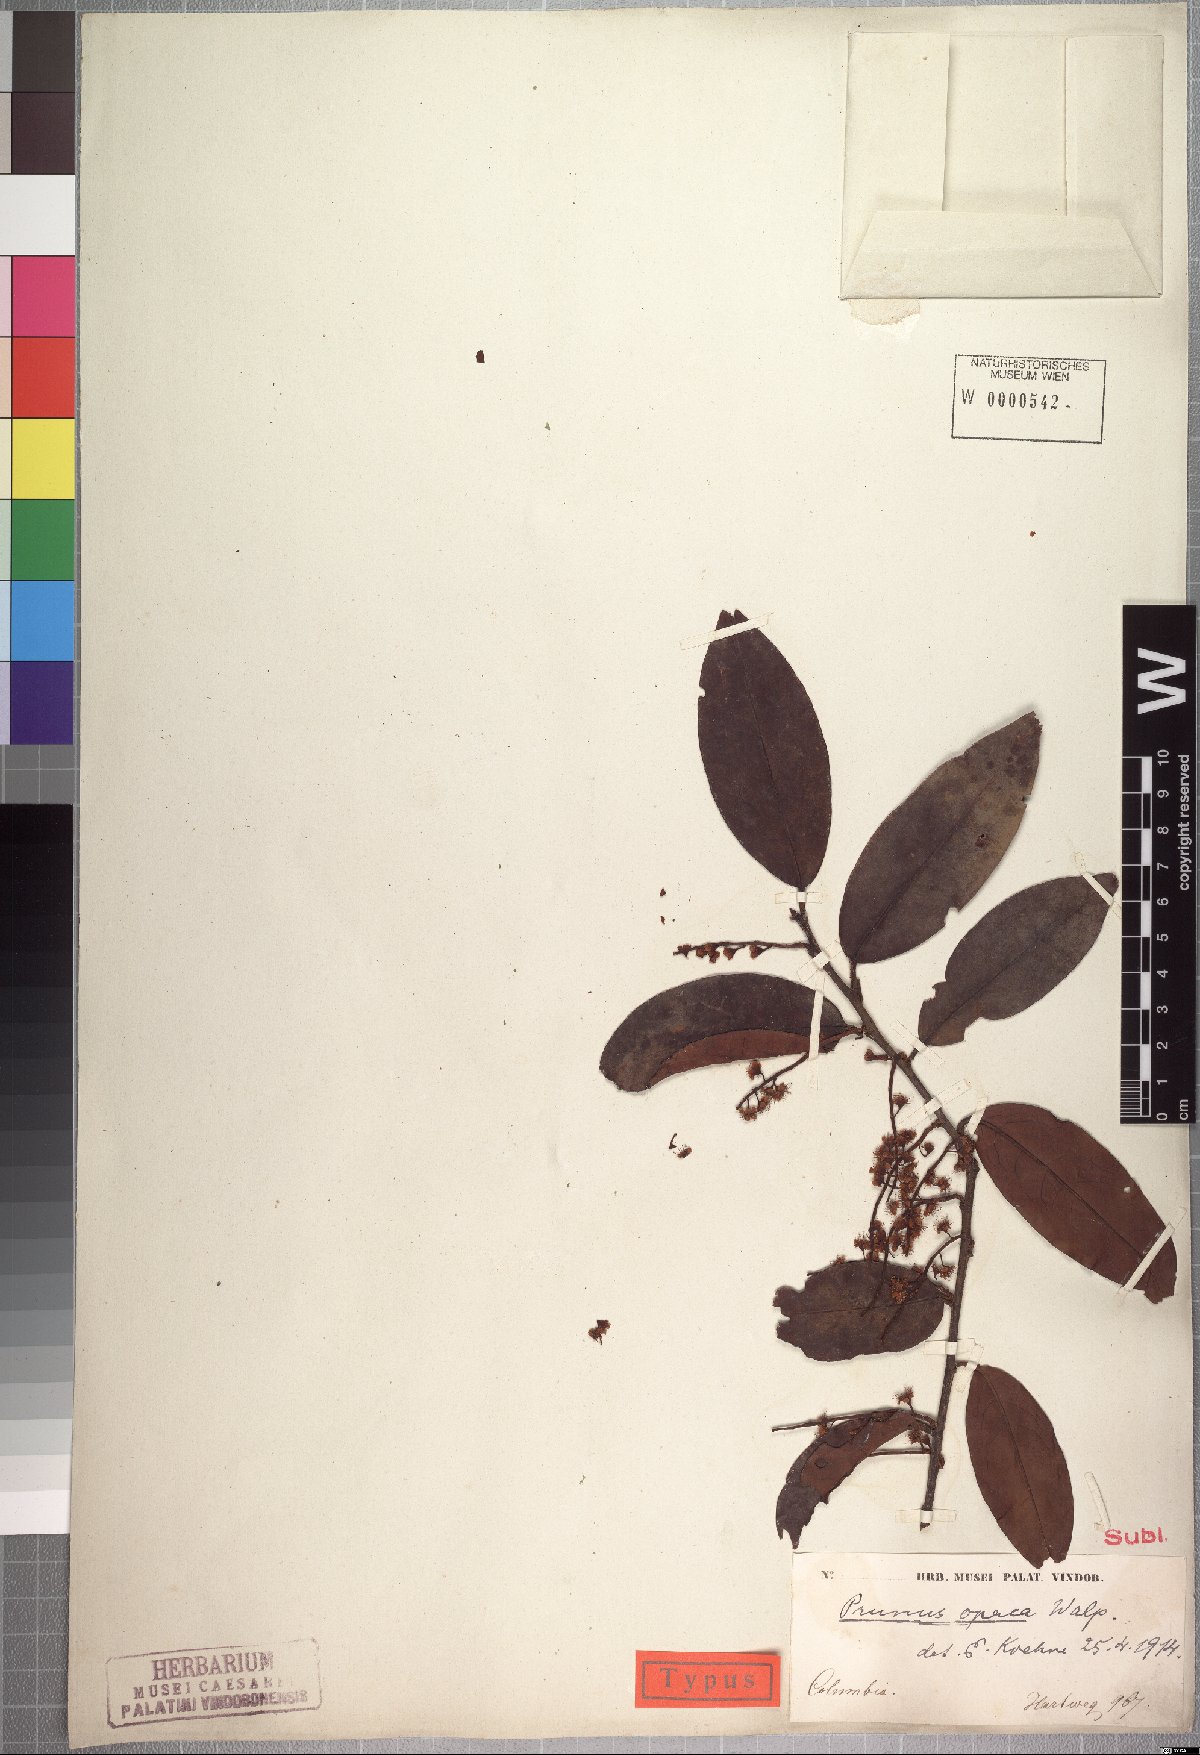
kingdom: Plantae
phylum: Tracheophyta
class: Magnoliopsida
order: Rosales
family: Rosaceae
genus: Prunus
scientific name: Prunus opaca
